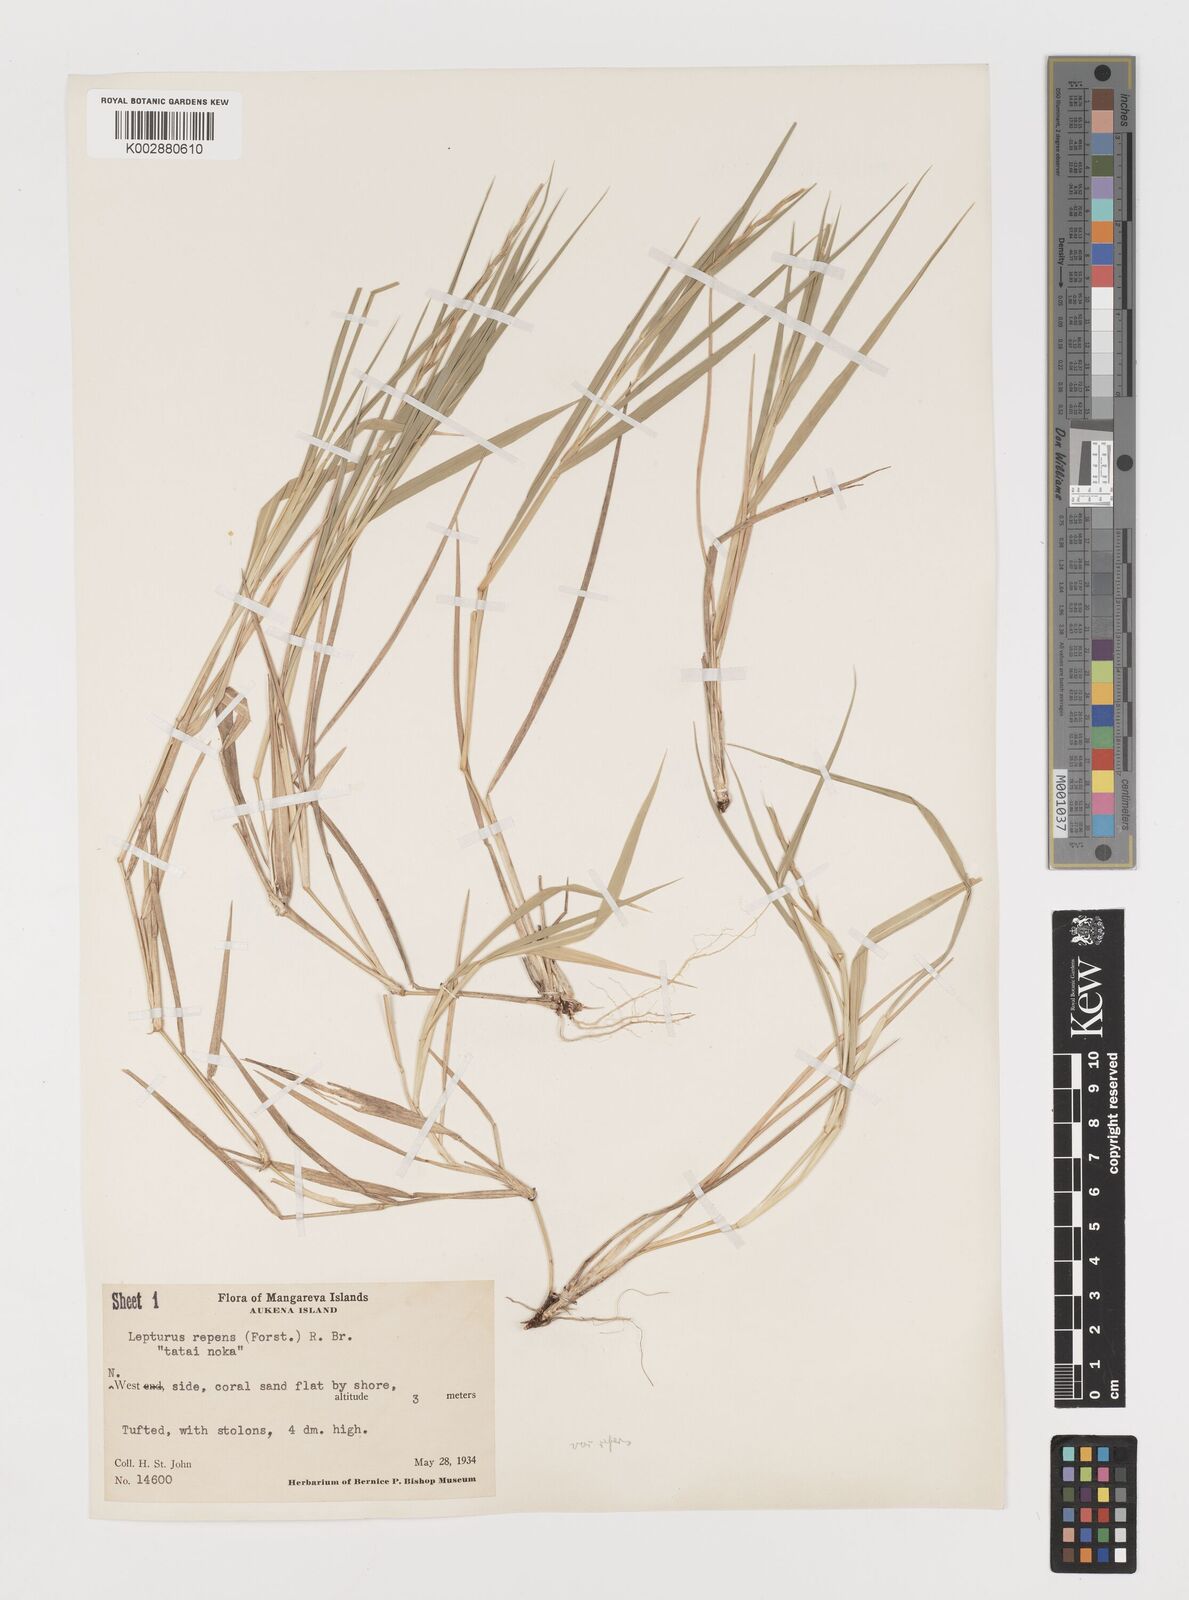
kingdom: Plantae
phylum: Tracheophyta
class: Liliopsida
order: Poales
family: Poaceae
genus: Lepturus
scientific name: Lepturus repens
